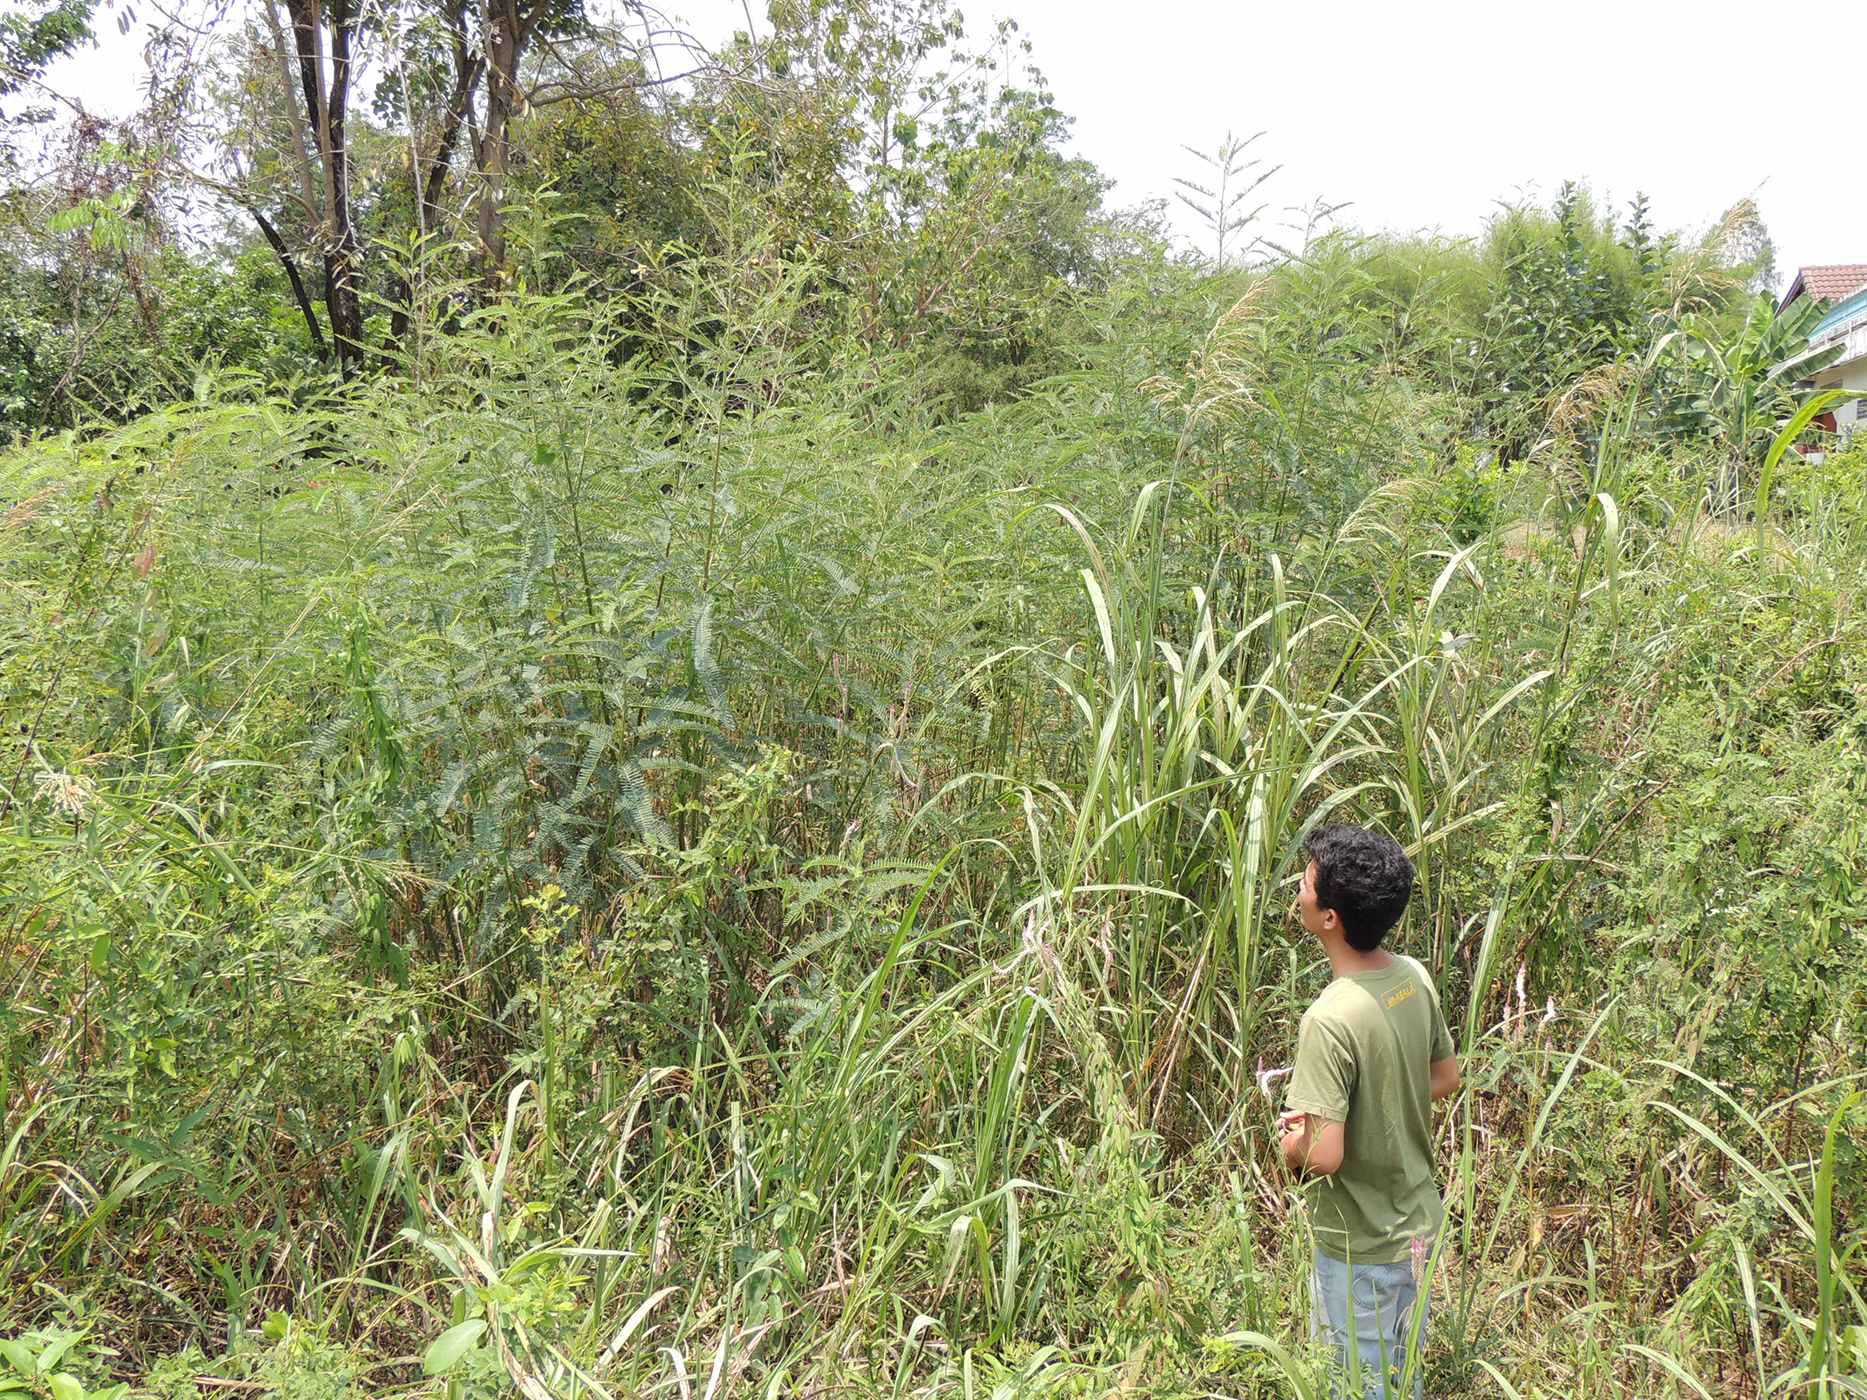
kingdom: Plantae
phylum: Tracheophyta
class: Magnoliopsida
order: Fabales
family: Fabaceae
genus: Sesbania
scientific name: Sesbania javanica
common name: Sesbania-pea
